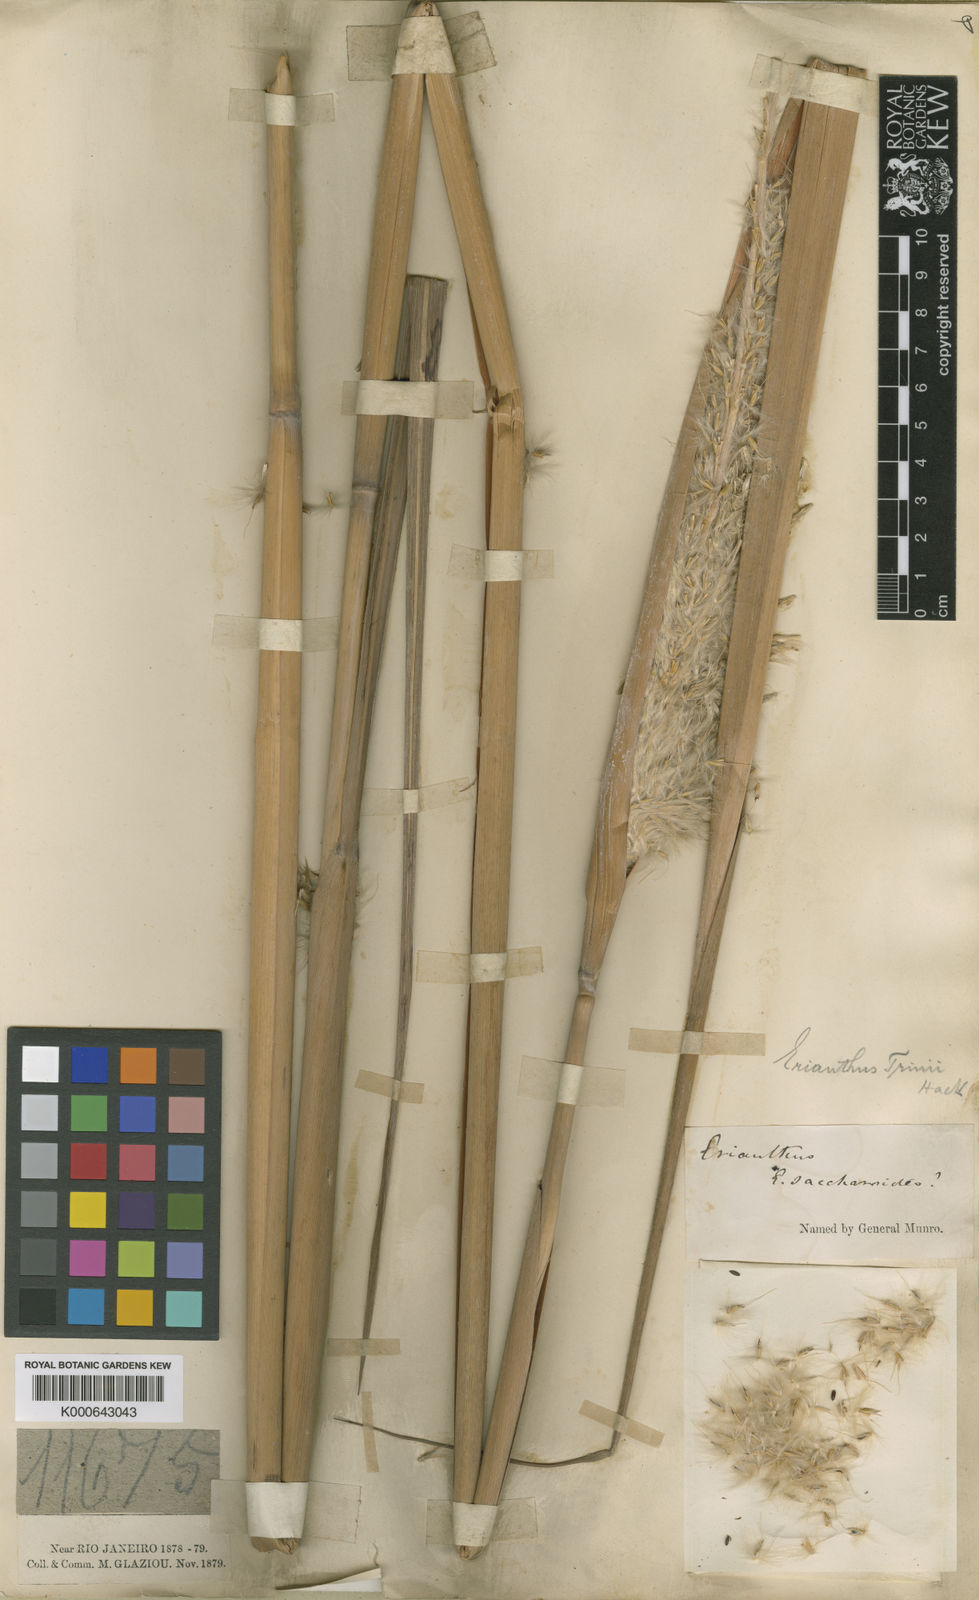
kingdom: Plantae
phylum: Tracheophyta
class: Liliopsida
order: Poales
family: Poaceae
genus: Erianthus
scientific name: Erianthus trinii
